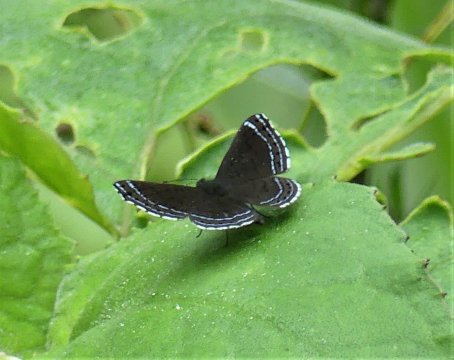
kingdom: Animalia
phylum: Arthropoda
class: Insecta
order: Lepidoptera
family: Lycaenidae
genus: Emesis
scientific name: Emesis irina
